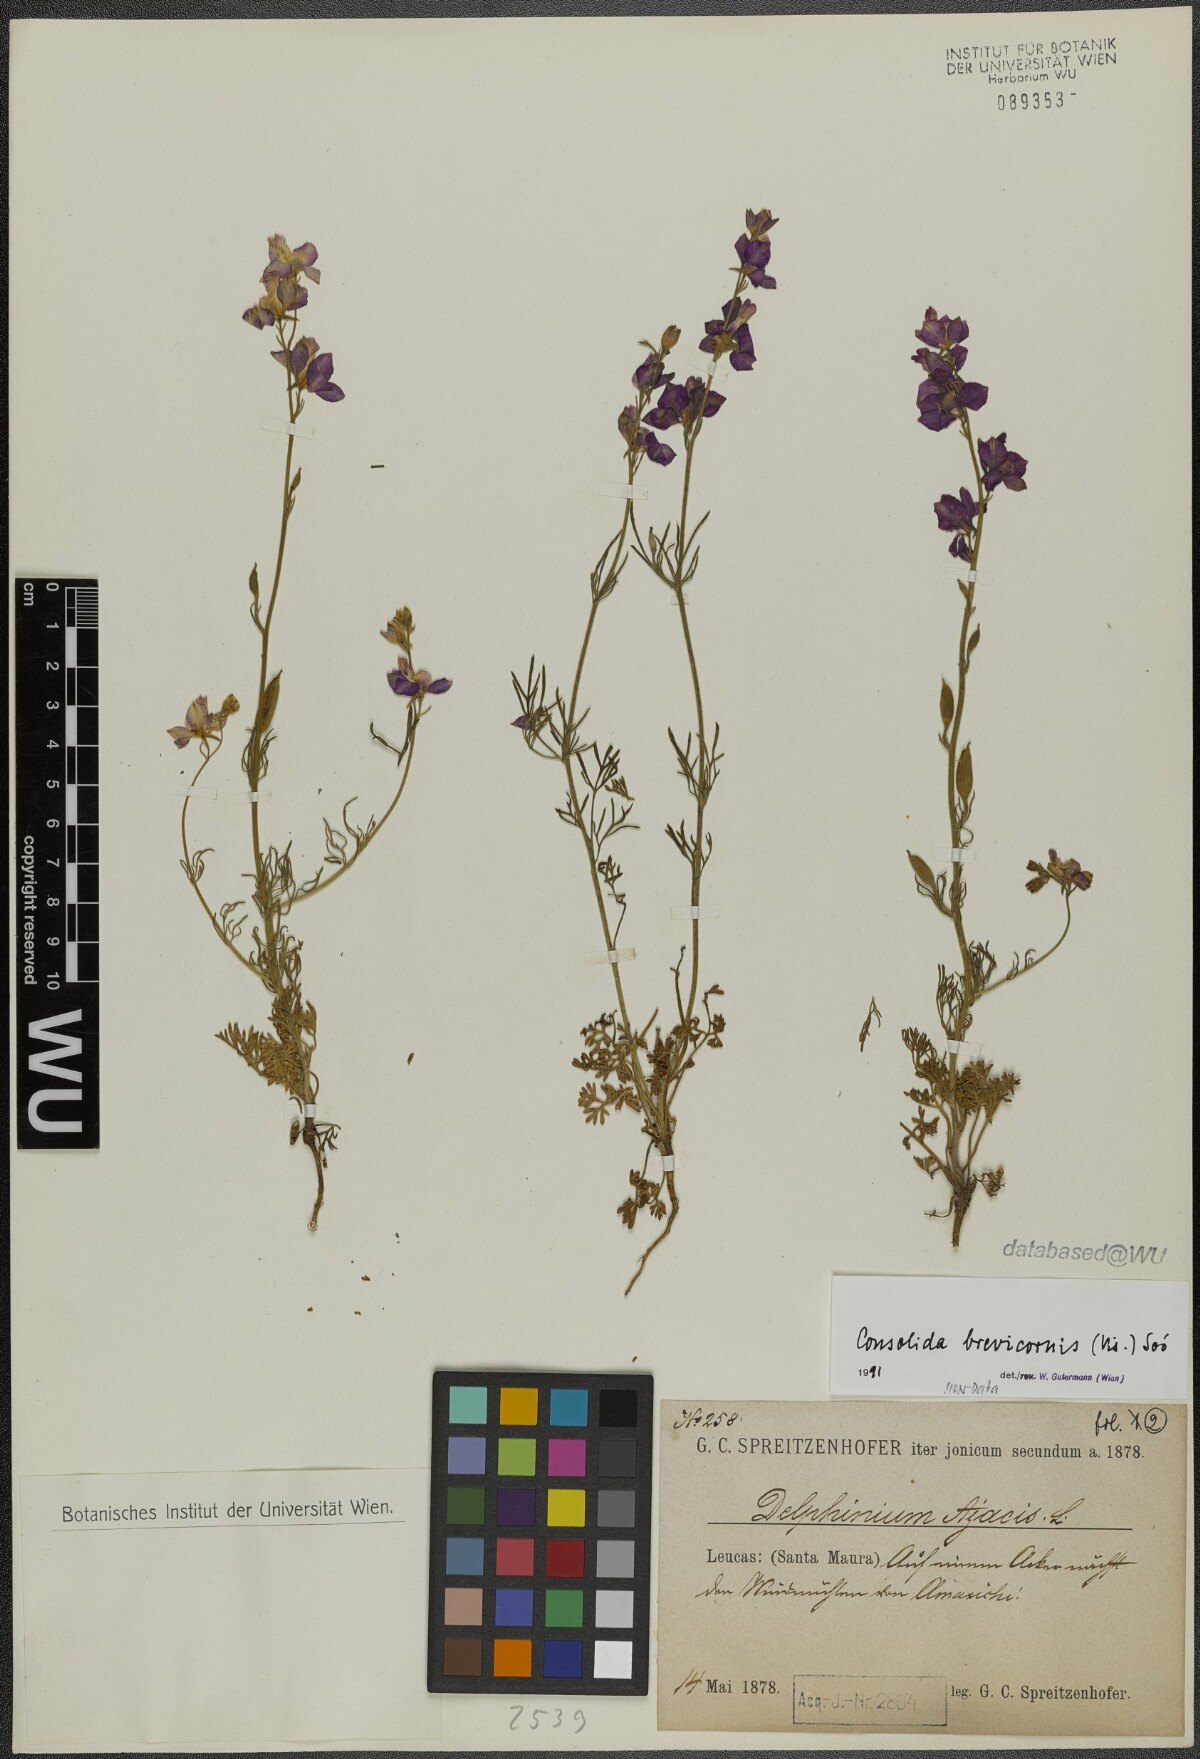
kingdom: Plantae
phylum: Tracheophyta
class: Magnoliopsida
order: Ranunculales
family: Ranunculaceae
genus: Delphinium
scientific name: Delphinium brevicorne
